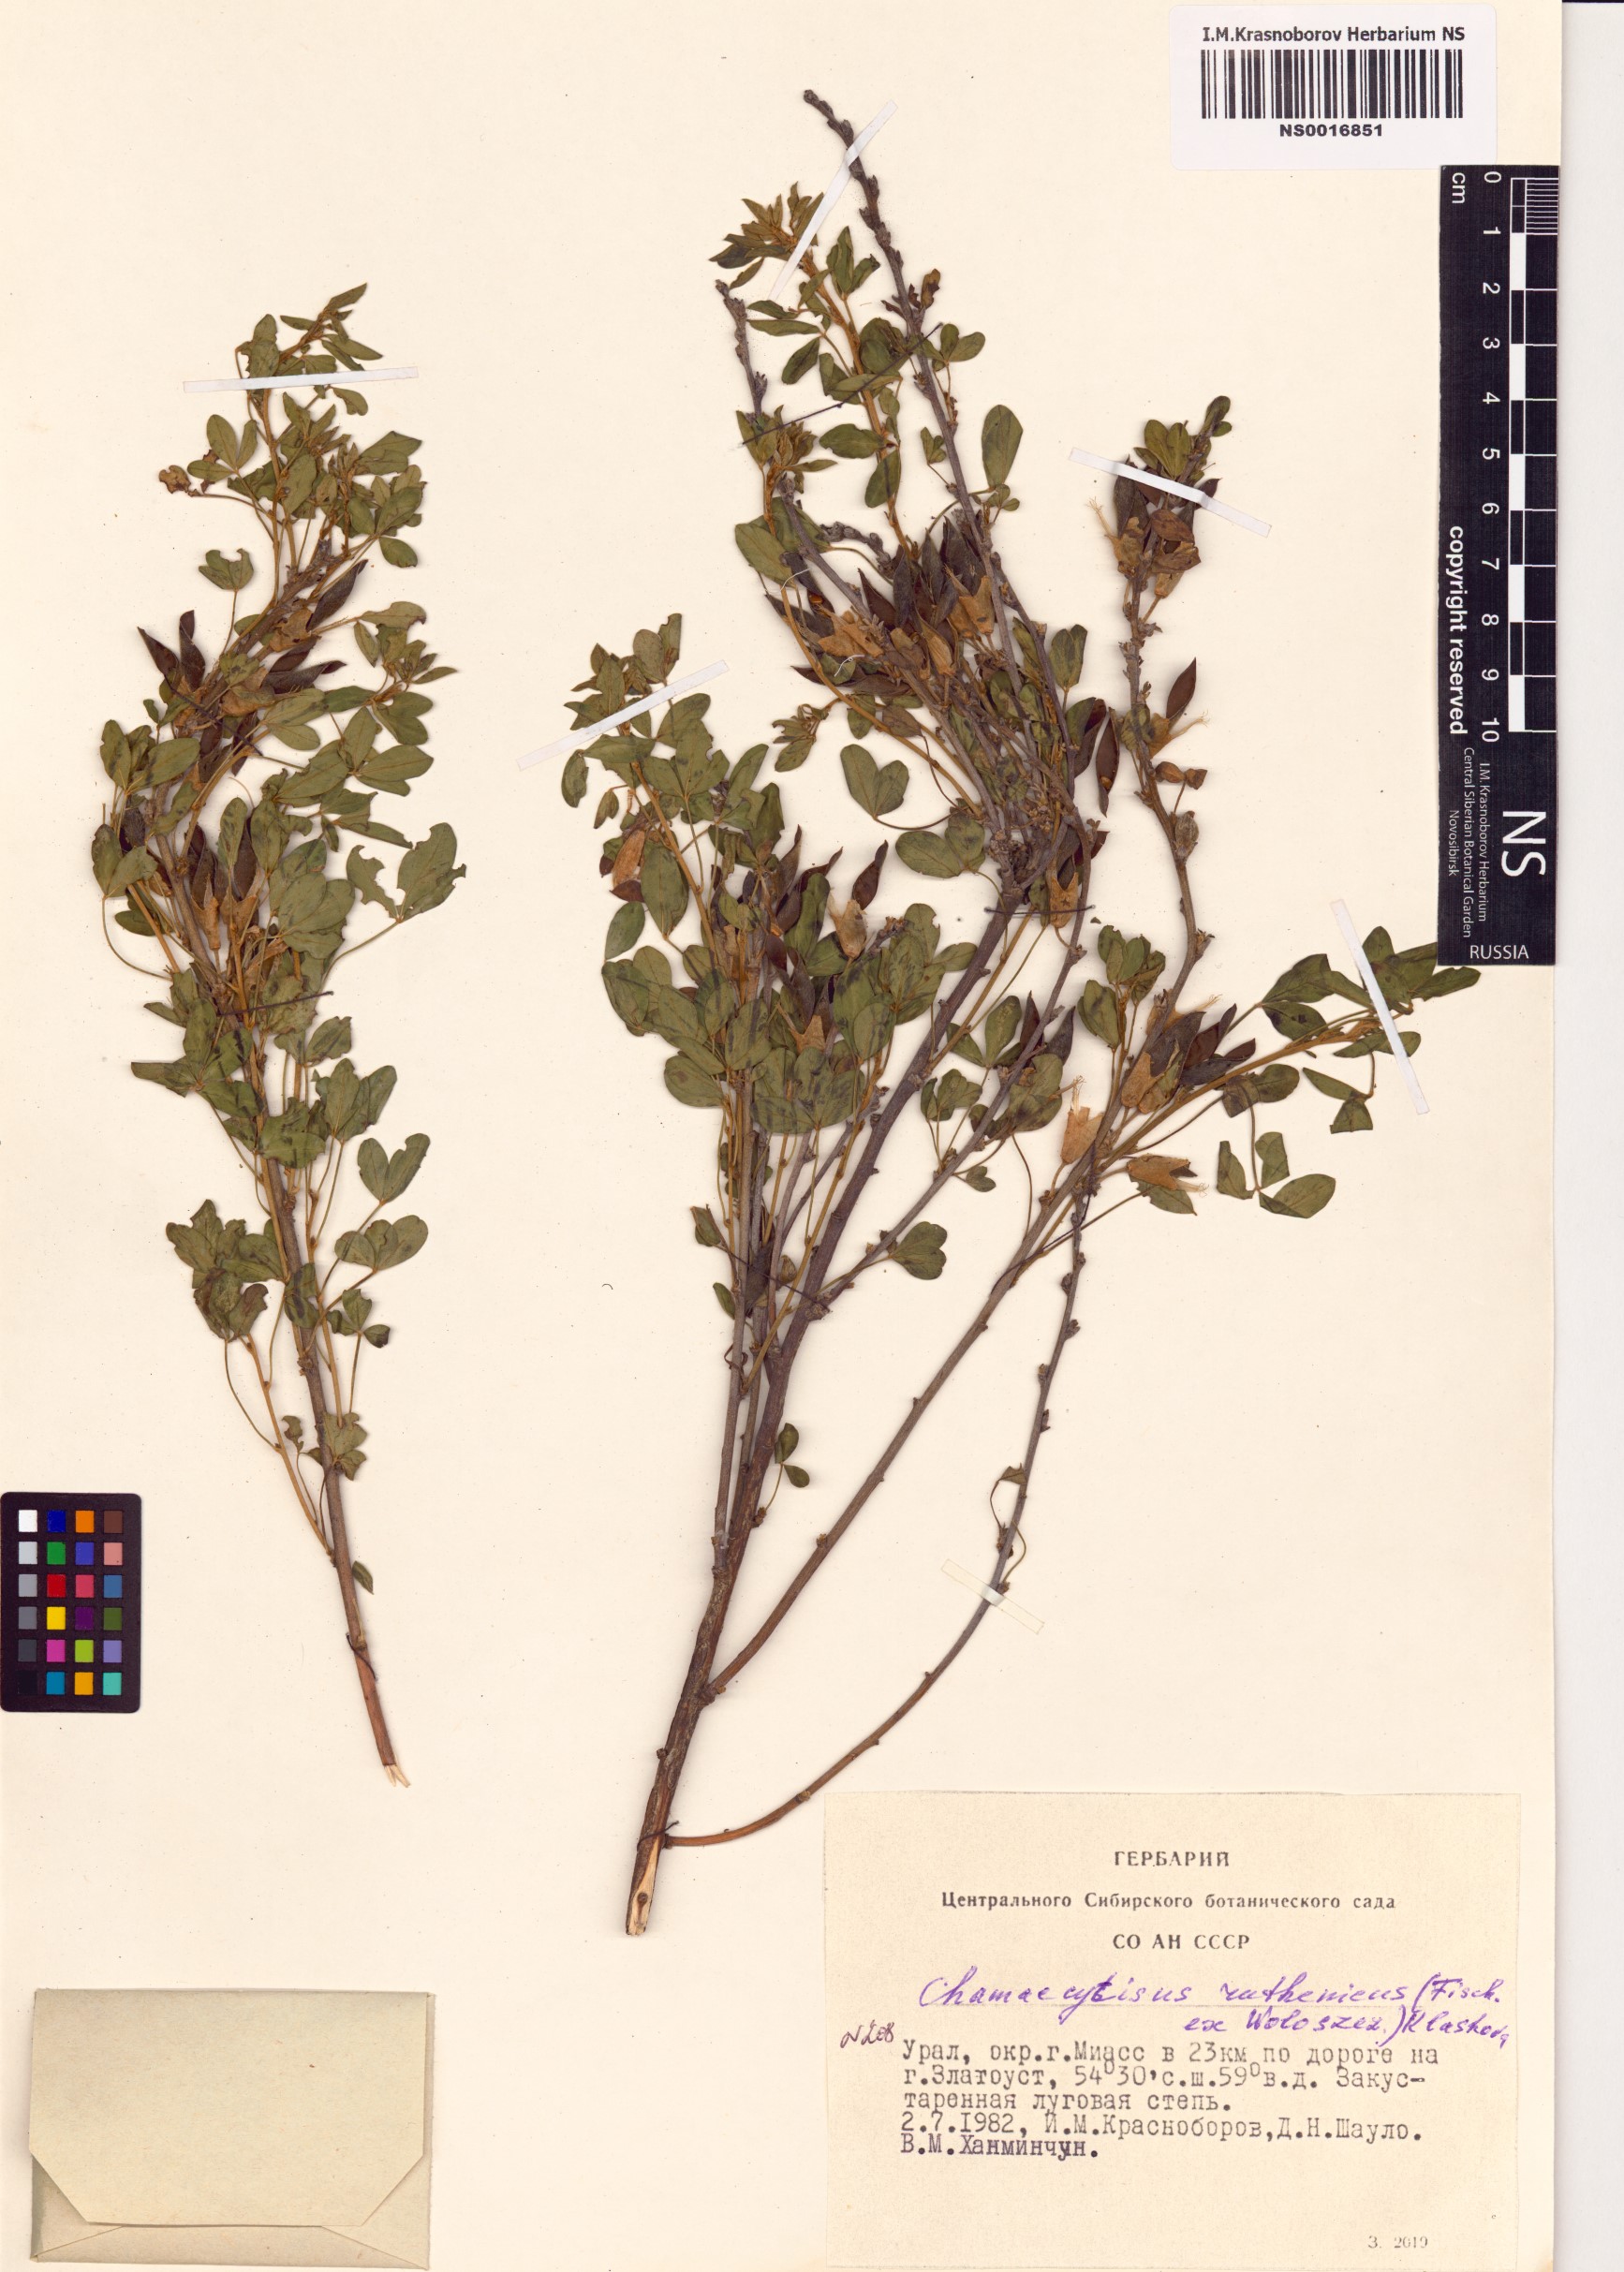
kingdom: Plantae
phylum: Tracheophyta
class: Magnoliopsida
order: Fabales
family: Fabaceae
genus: Chamaecytisus
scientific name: Chamaecytisus ruthenicus
